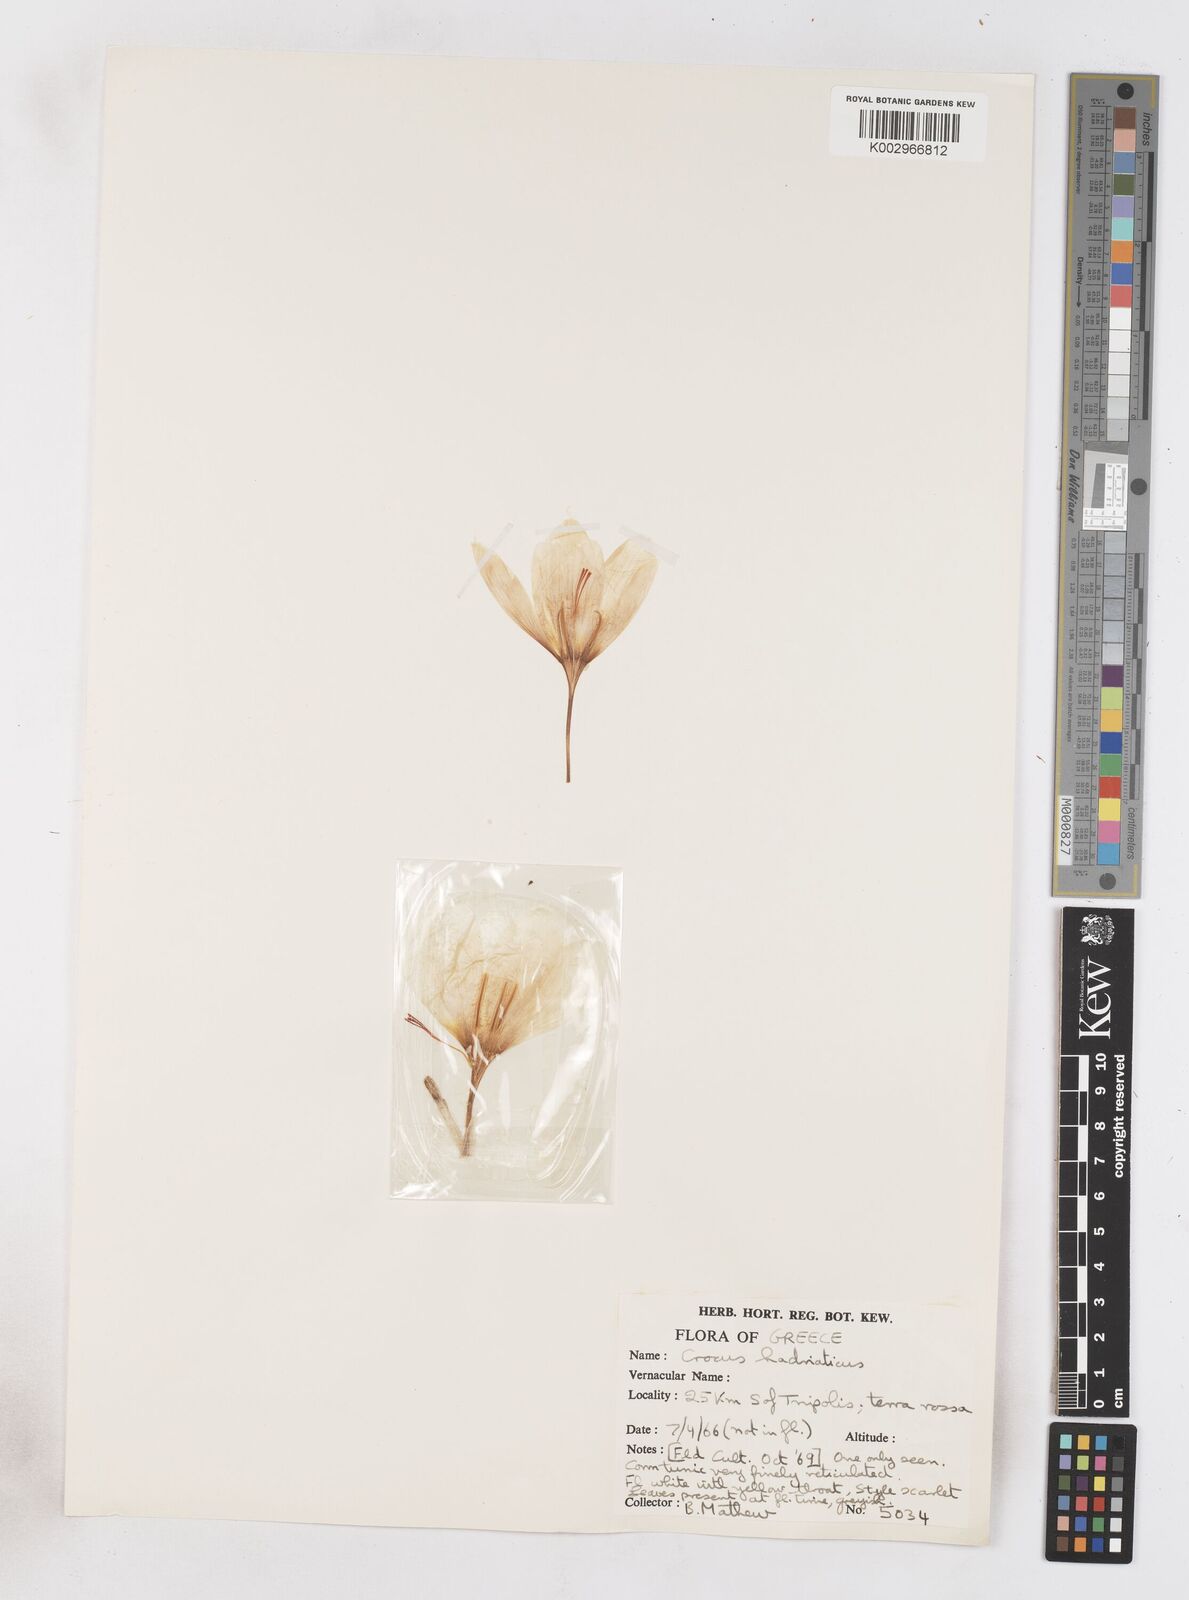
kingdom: Plantae
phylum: Tracheophyta
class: Liliopsida
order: Asparagales
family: Iridaceae
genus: Crocus
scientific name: Crocus hadriaticus
